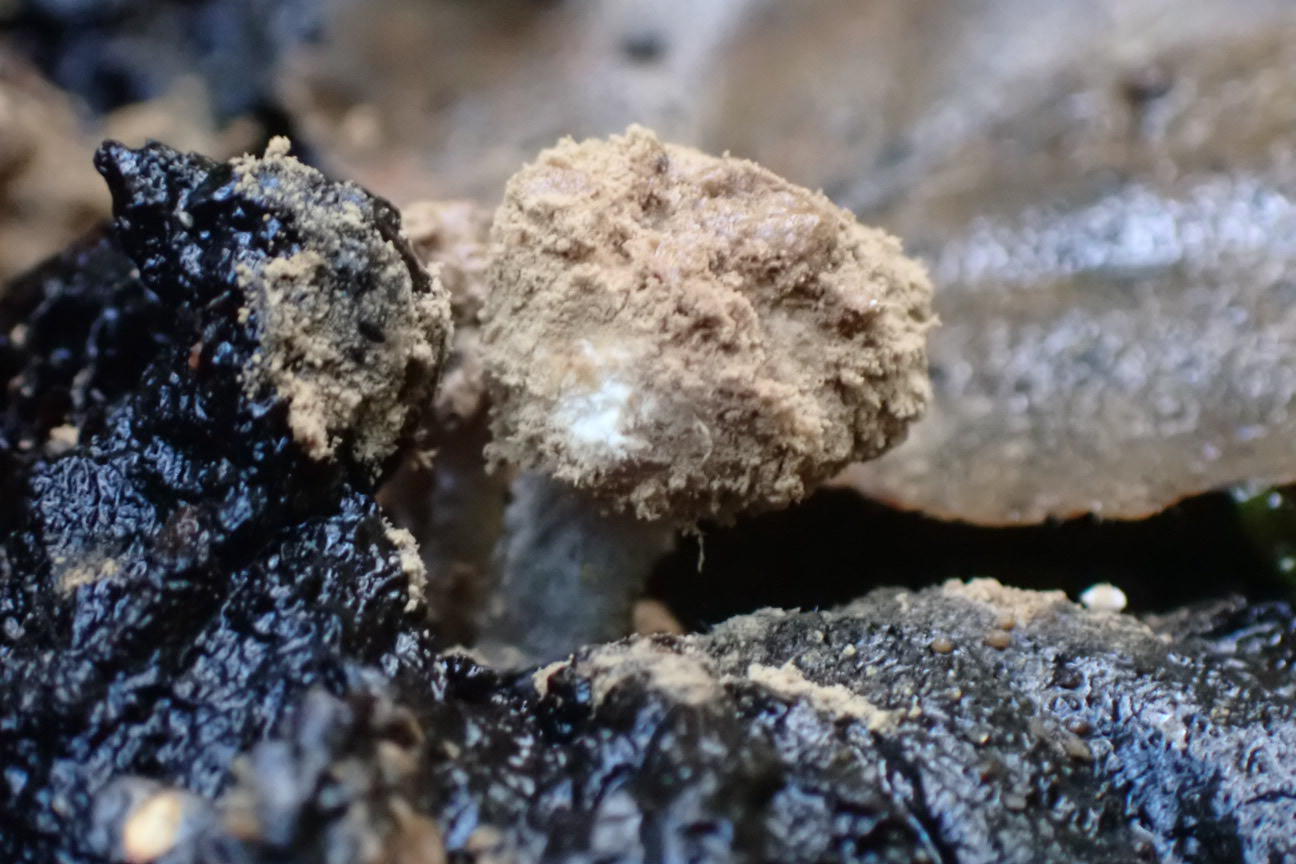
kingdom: Fungi
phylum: Basidiomycota
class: Agaricomycetes
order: Agaricales
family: Lyophyllaceae
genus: Asterophora
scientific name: Asterophora lycoperdoides
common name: brunpudret snyltehat
